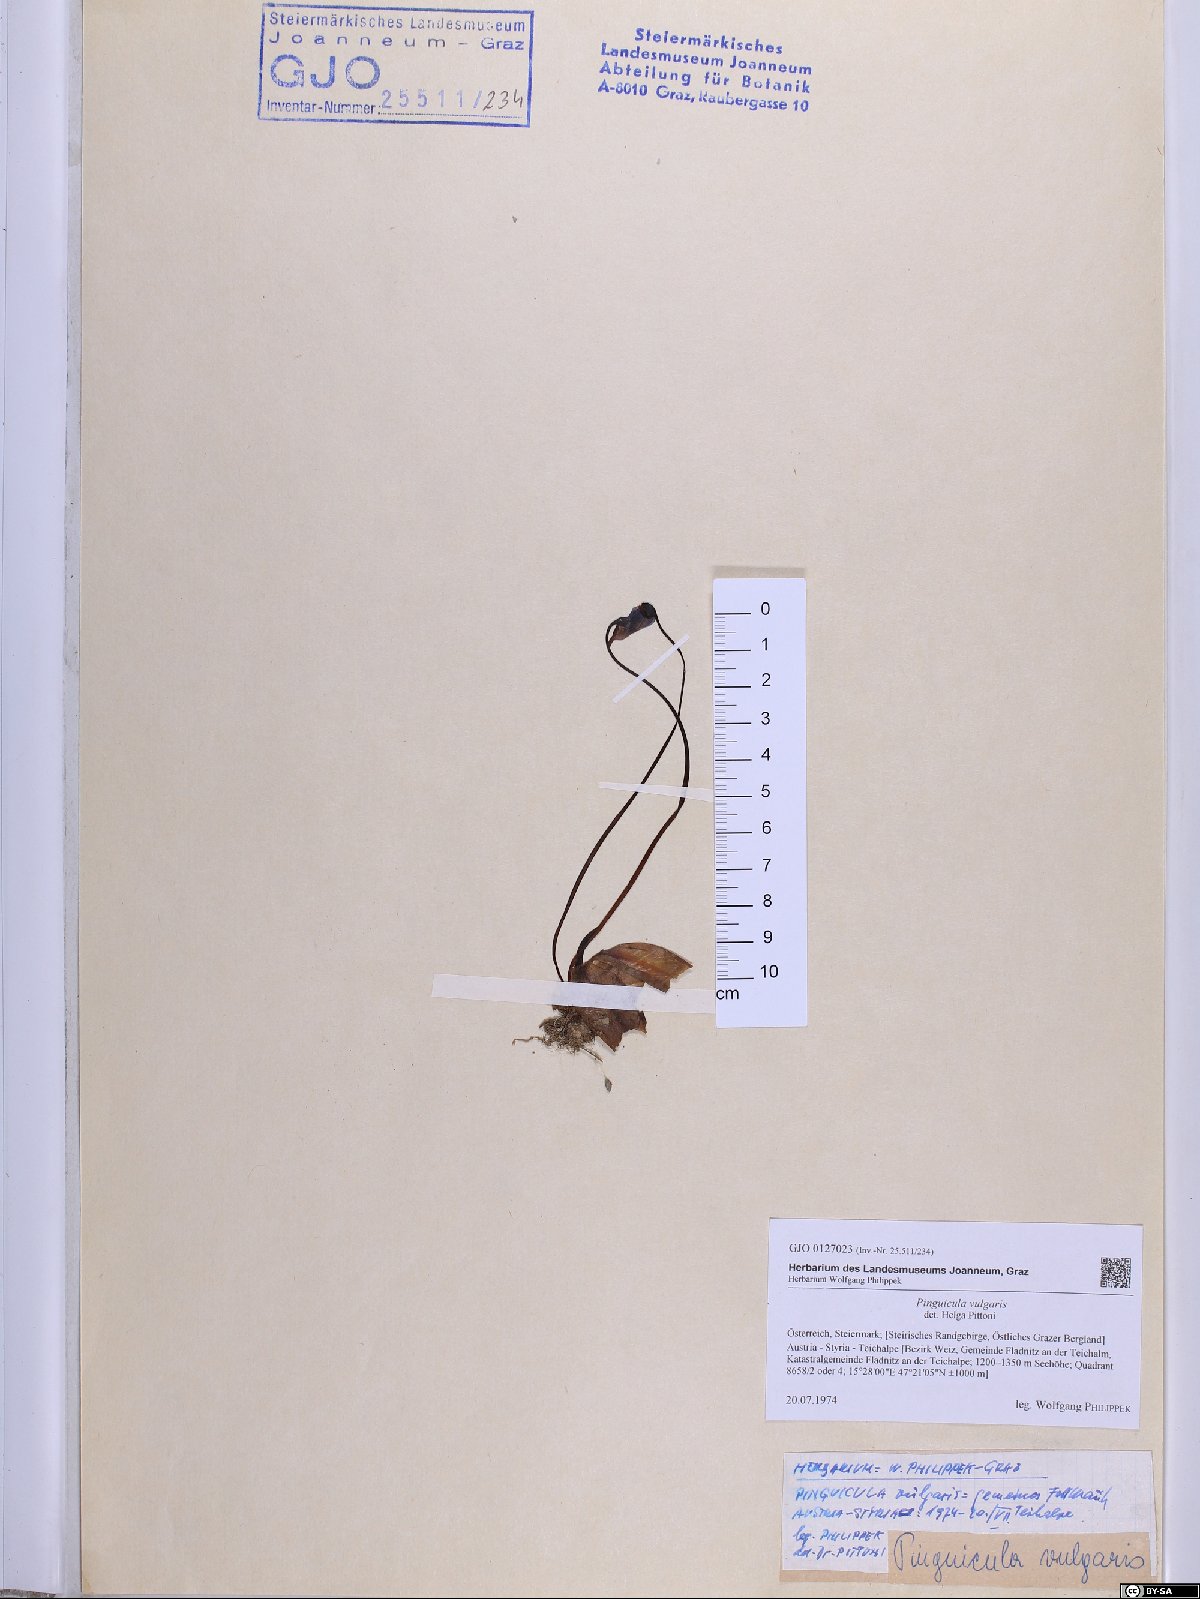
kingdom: Plantae
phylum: Tracheophyta
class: Magnoliopsida
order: Lamiales
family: Lentibulariaceae
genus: Pinguicula
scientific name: Pinguicula vulgaris
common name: Common butterwort
